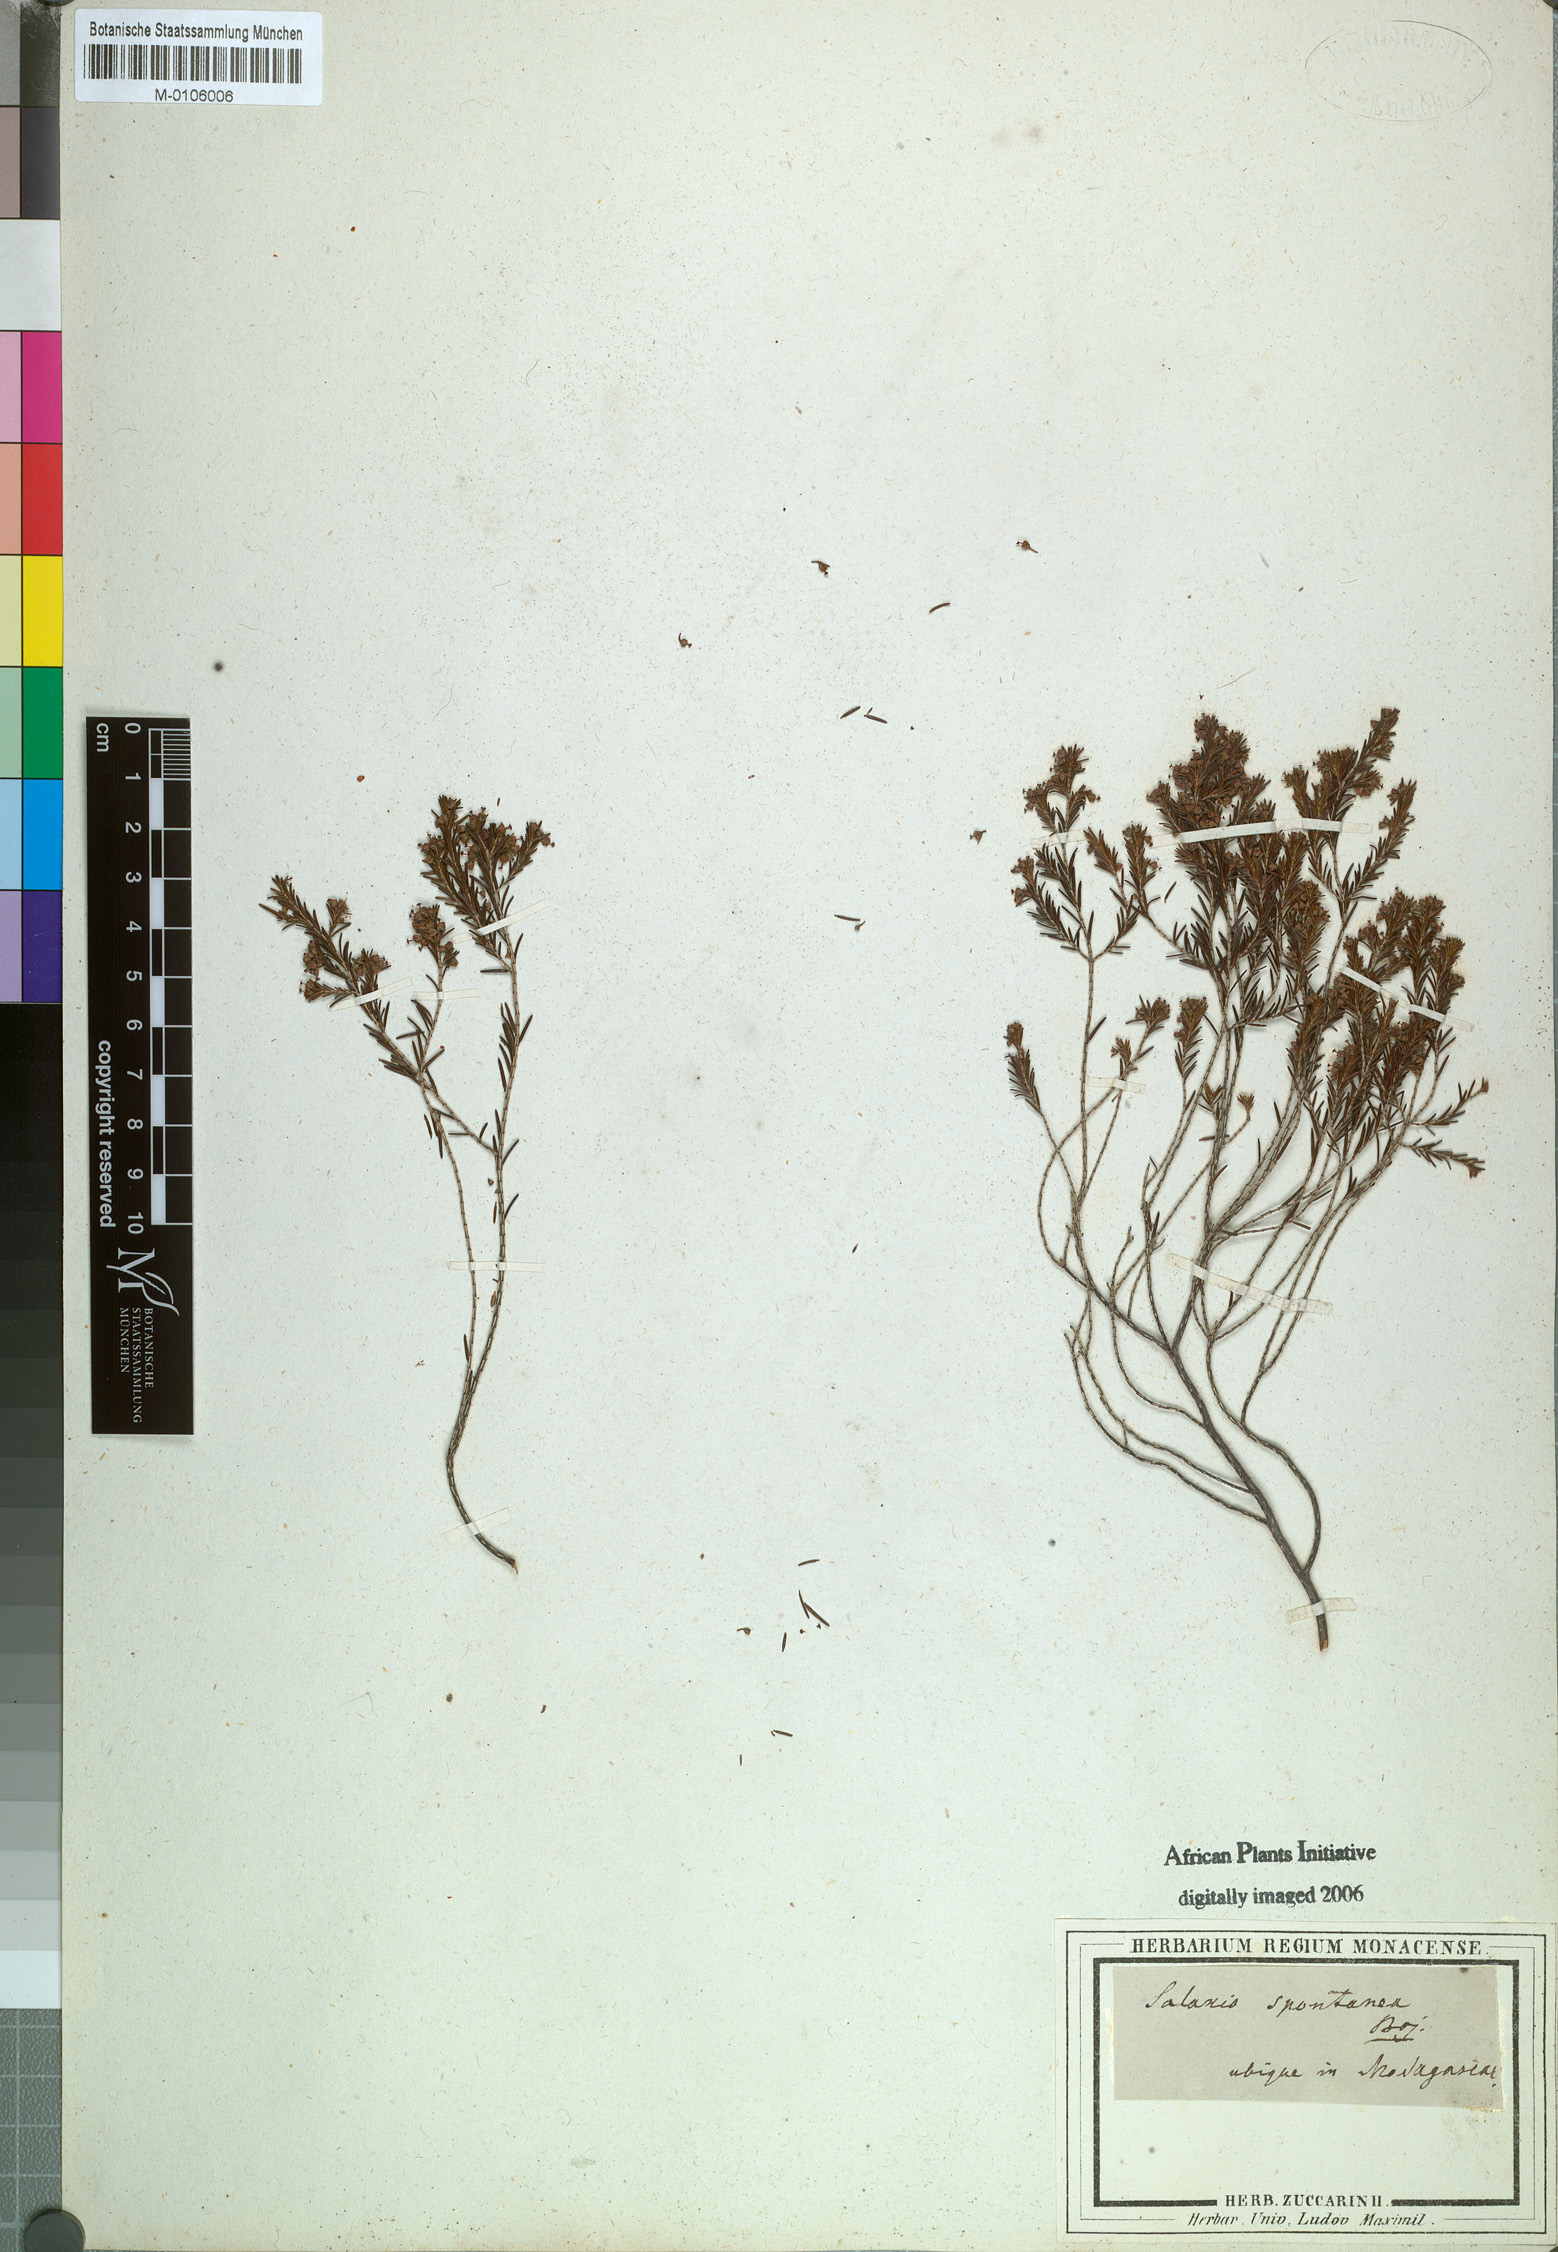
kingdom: Plantae
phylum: Tracheophyta
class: Magnoliopsida
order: Ericales
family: Ericaceae
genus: Erica
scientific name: Erica
